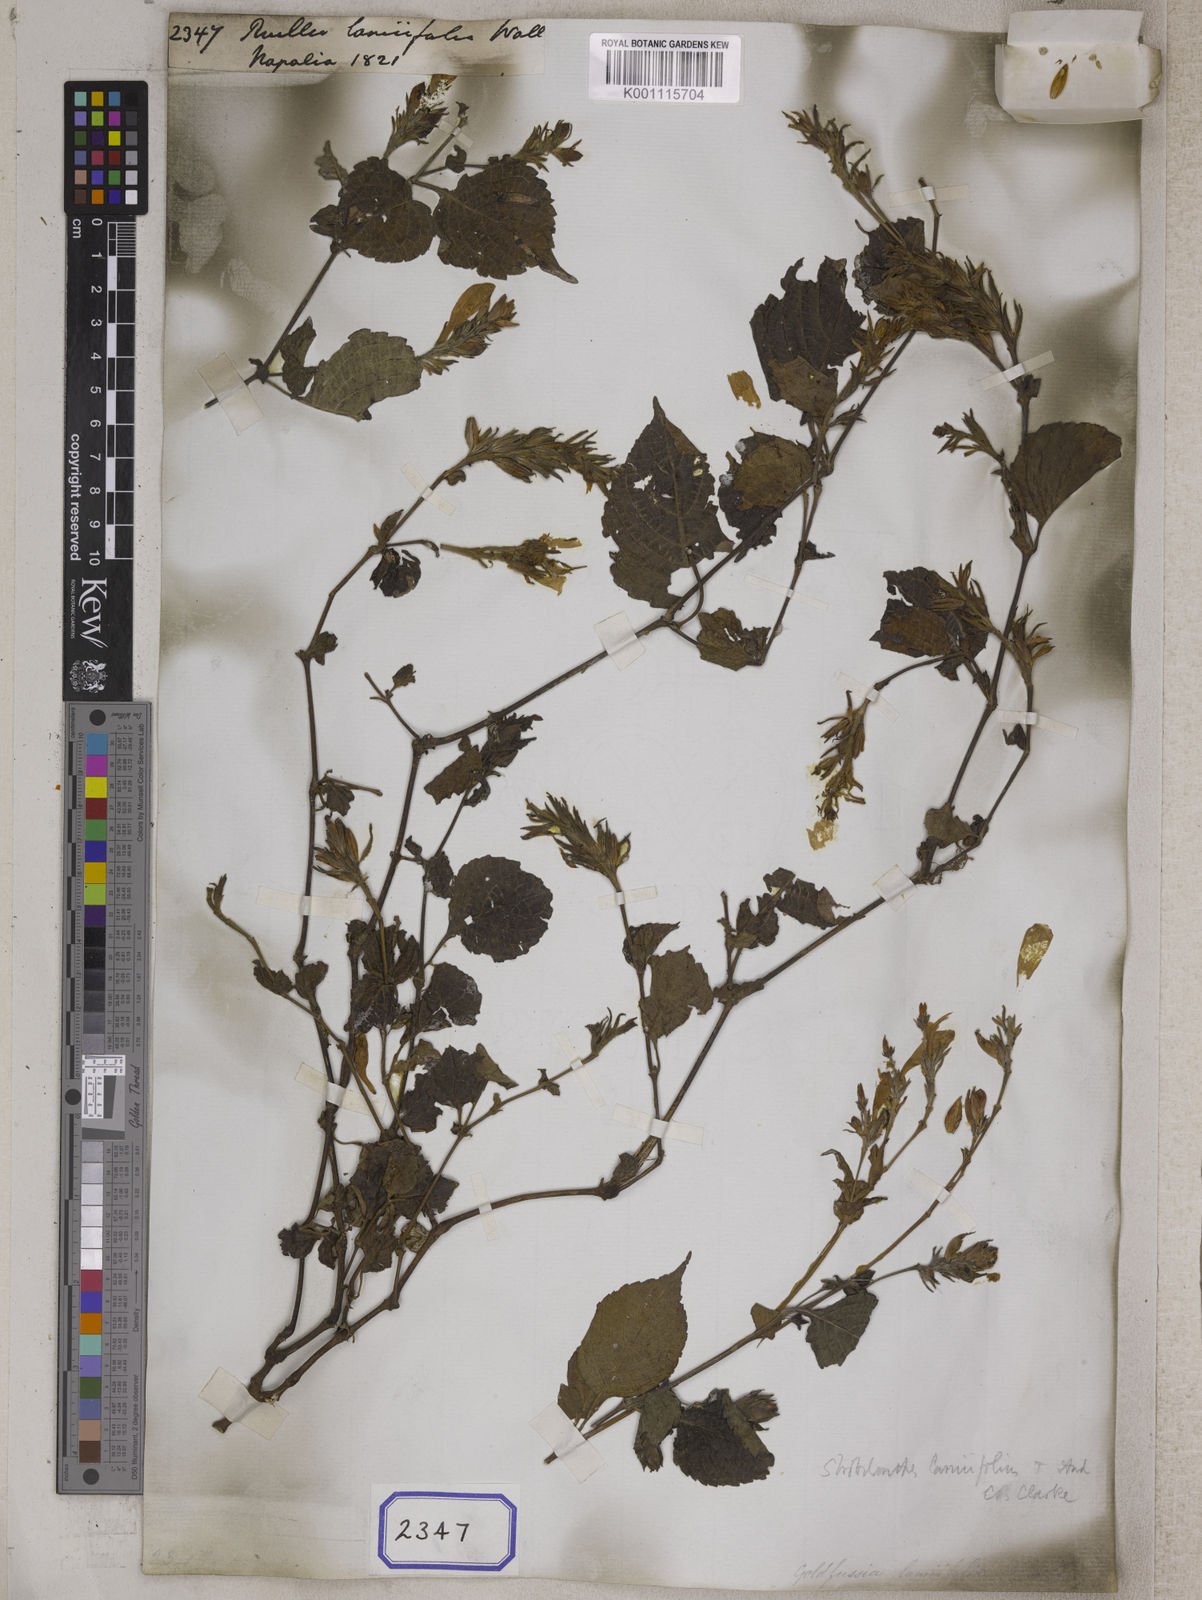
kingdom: Plantae
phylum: Tracheophyta
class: Magnoliopsida
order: Lamiales
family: Acanthaceae
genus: Strobilanthes
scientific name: Strobilanthes attenuata
